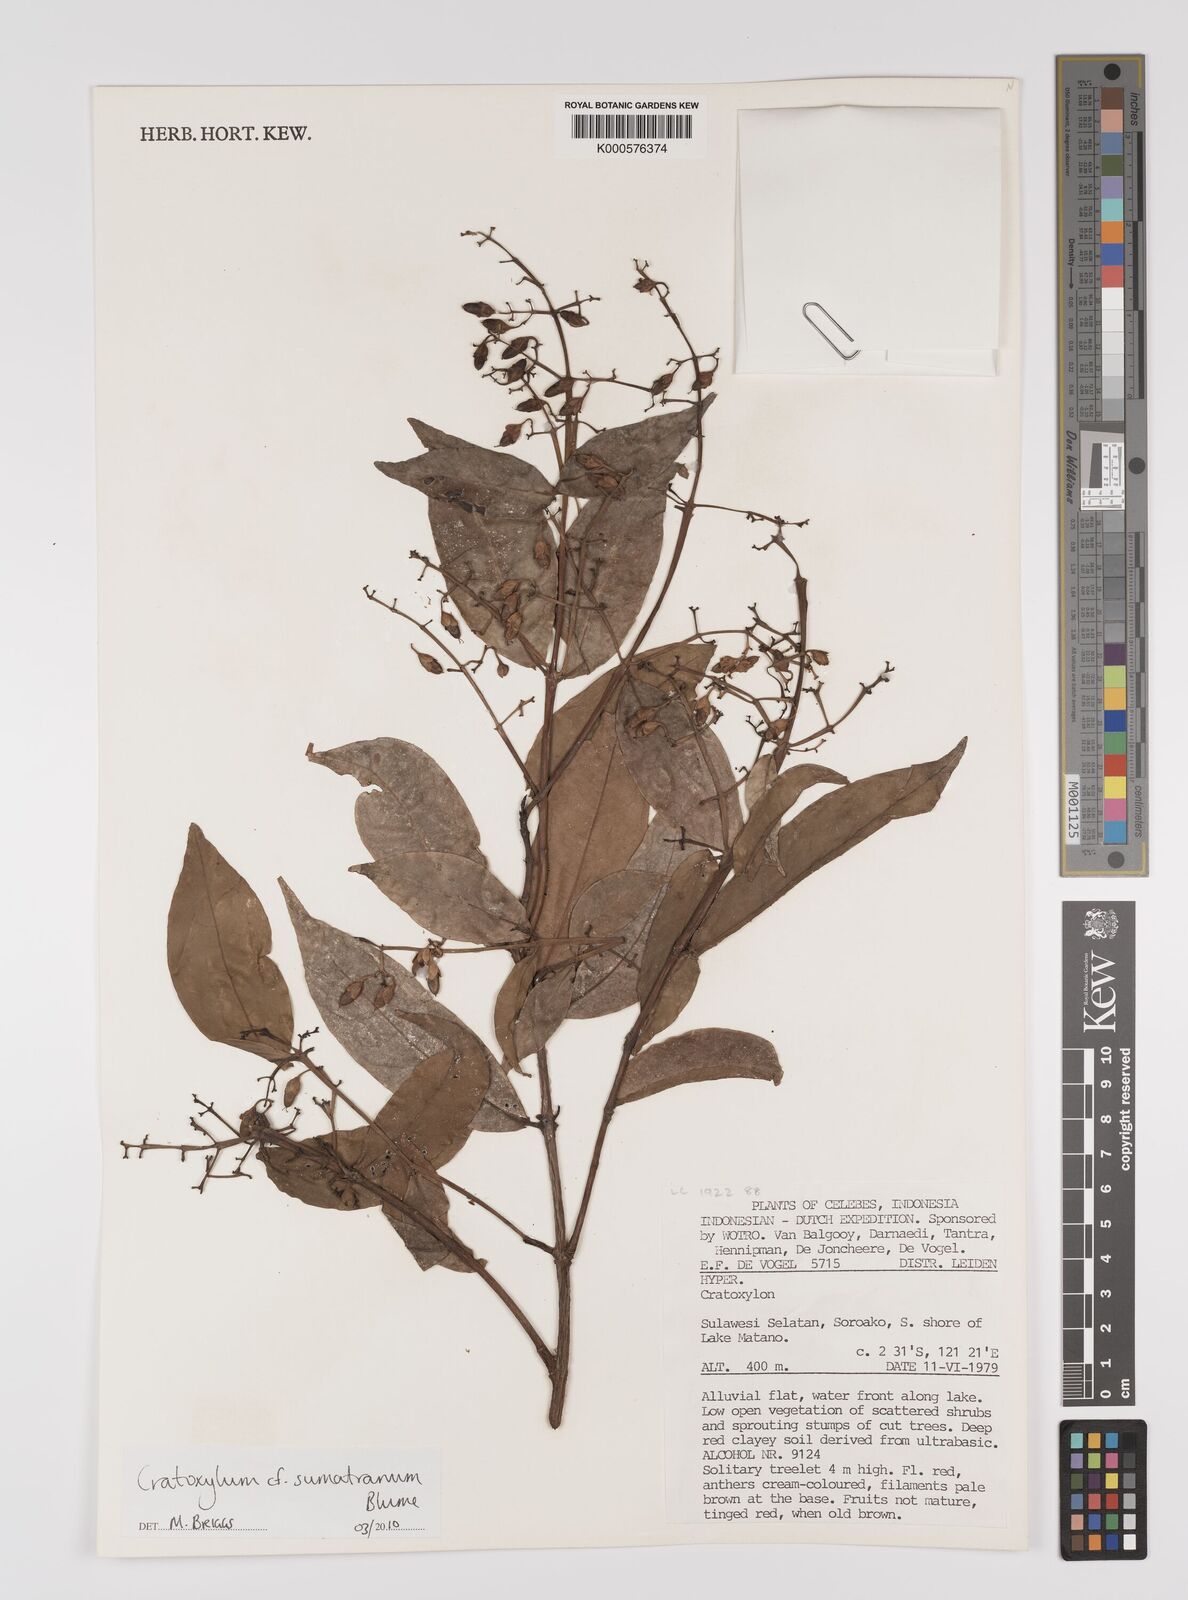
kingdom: Plantae
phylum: Tracheophyta
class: Magnoliopsida
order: Malpighiales
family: Hypericaceae
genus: Cratoxylum
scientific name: Cratoxylum sumatranum
